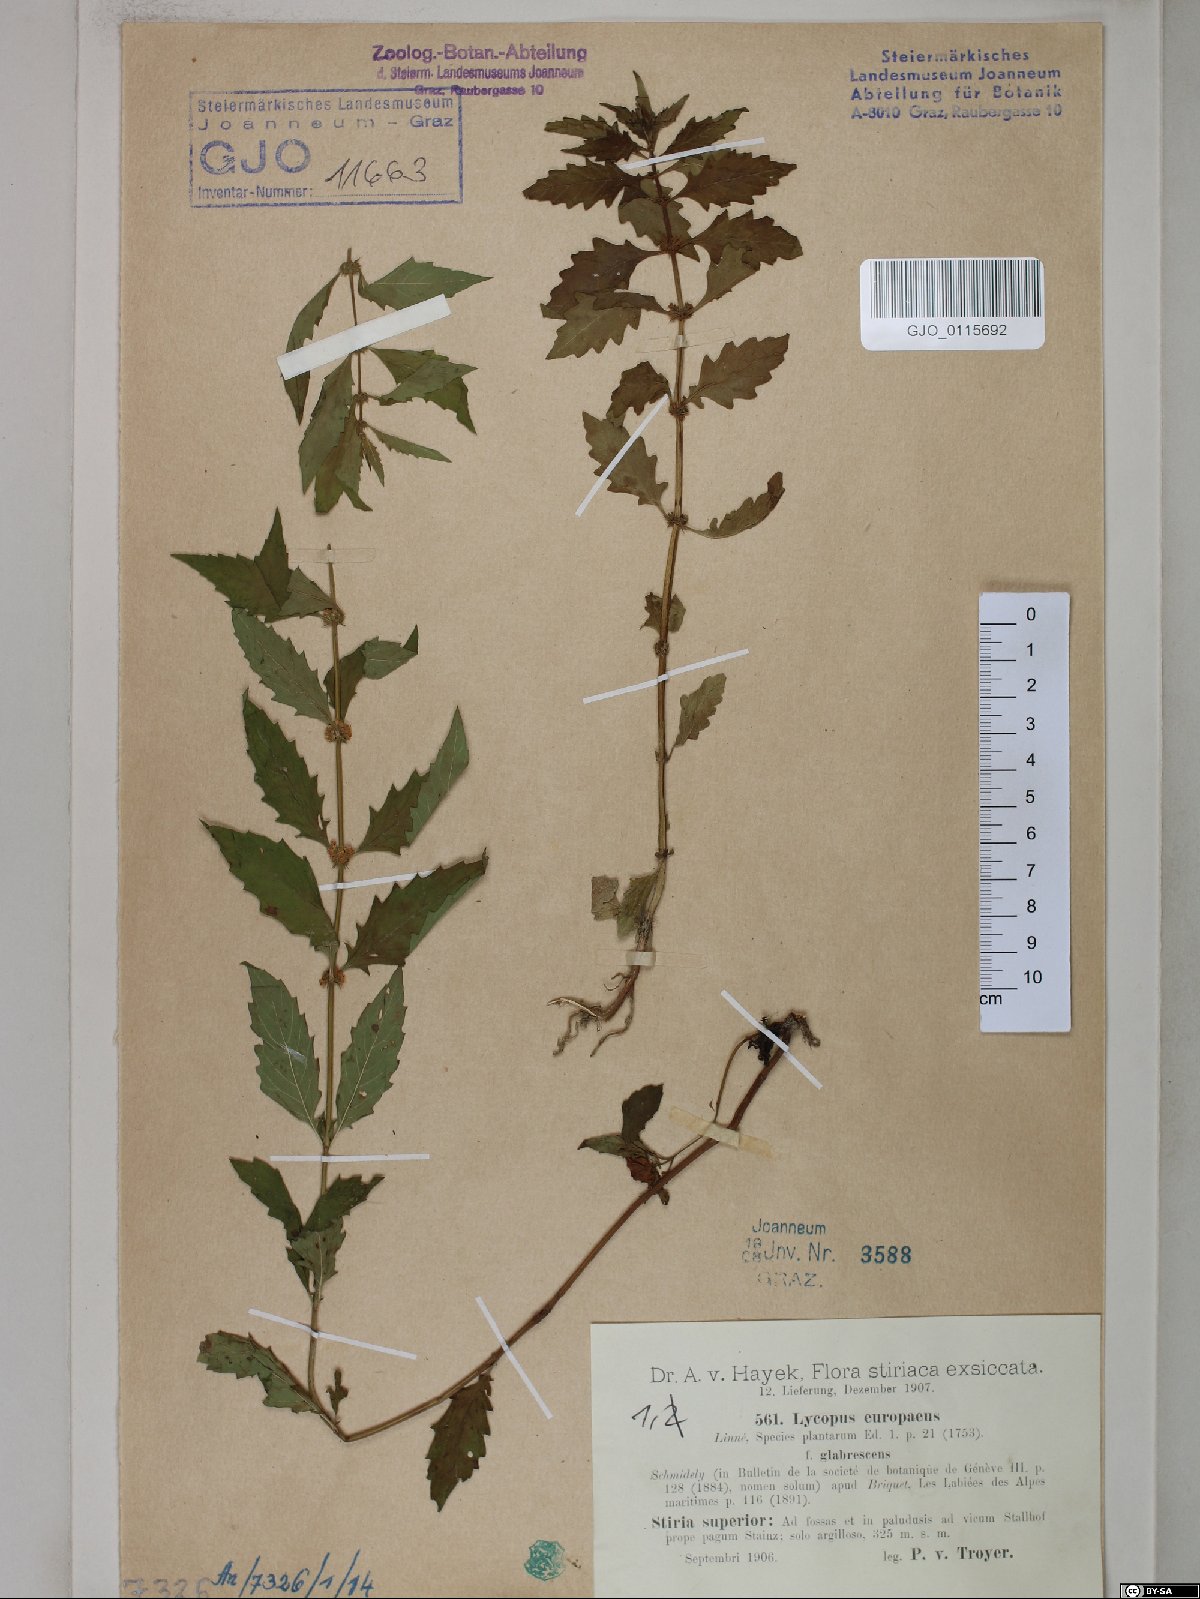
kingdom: Plantae
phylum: Tracheophyta
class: Magnoliopsida
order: Lamiales
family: Lamiaceae
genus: Lycopus
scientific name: Lycopus europaeus
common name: European bugleweed
